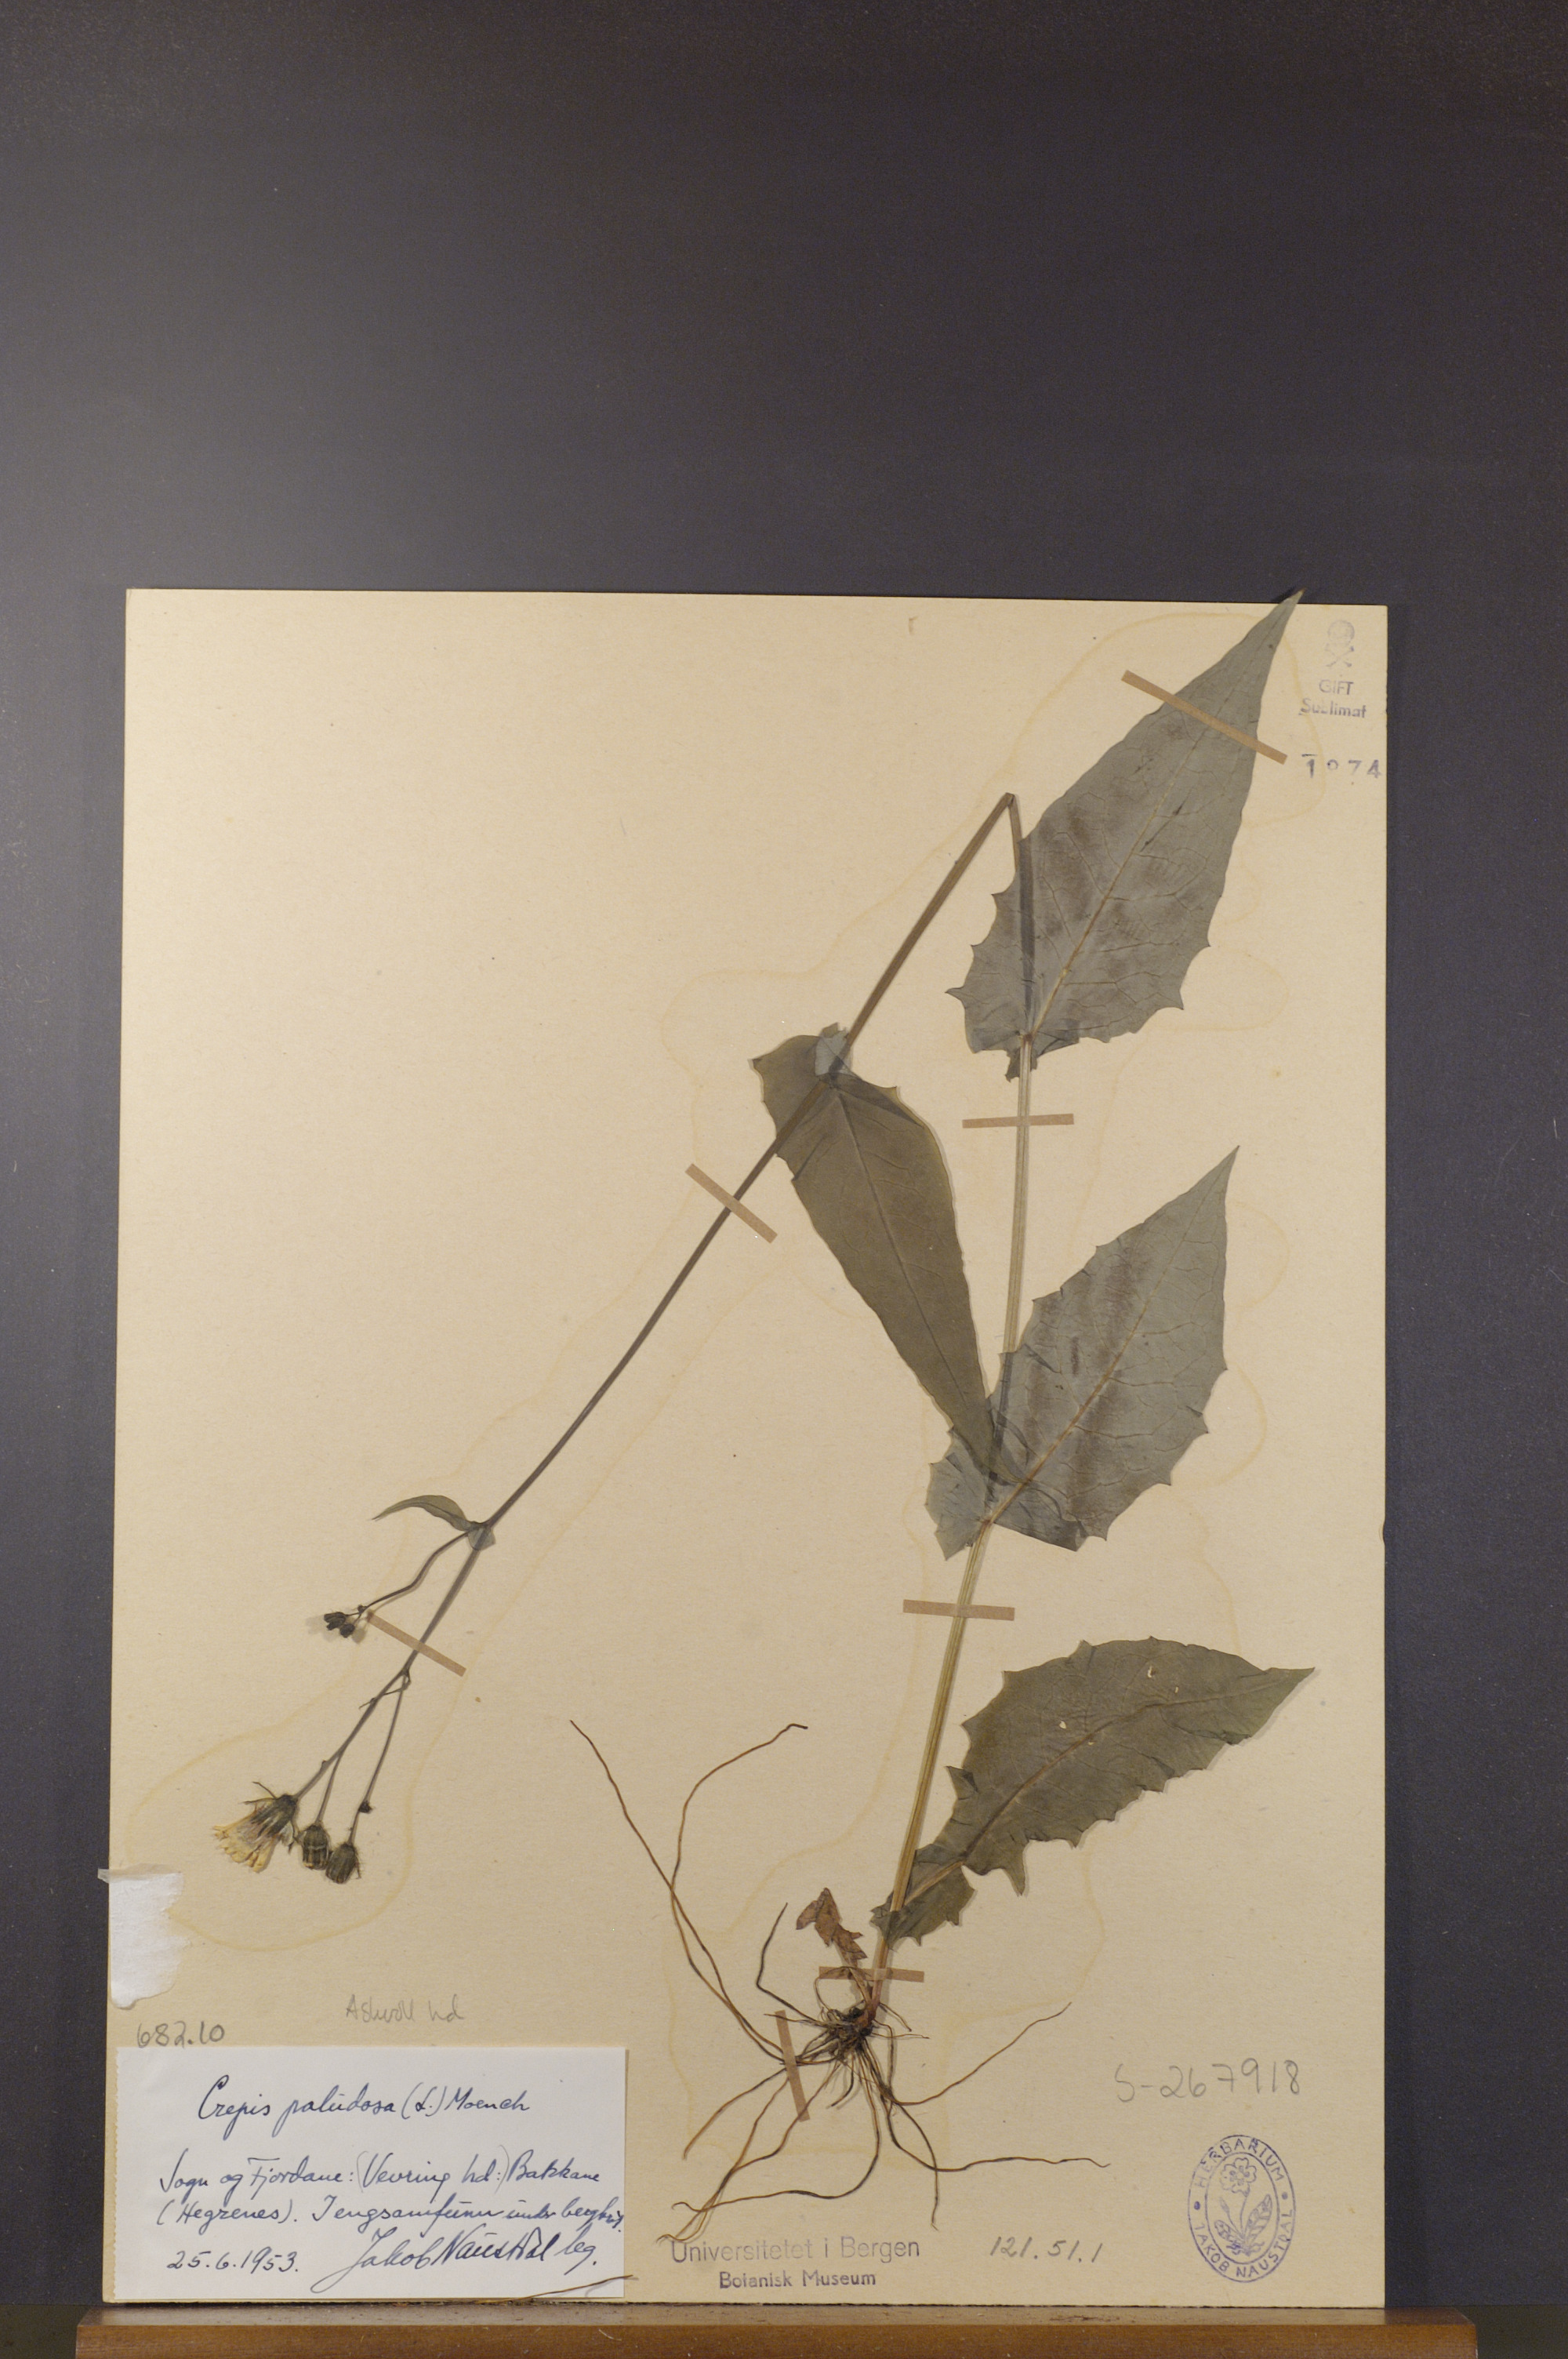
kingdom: Plantae
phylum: Tracheophyta
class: Magnoliopsida
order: Asterales
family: Asteraceae
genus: Crepis
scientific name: Crepis paludosa
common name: Marsh hawk's-beard
